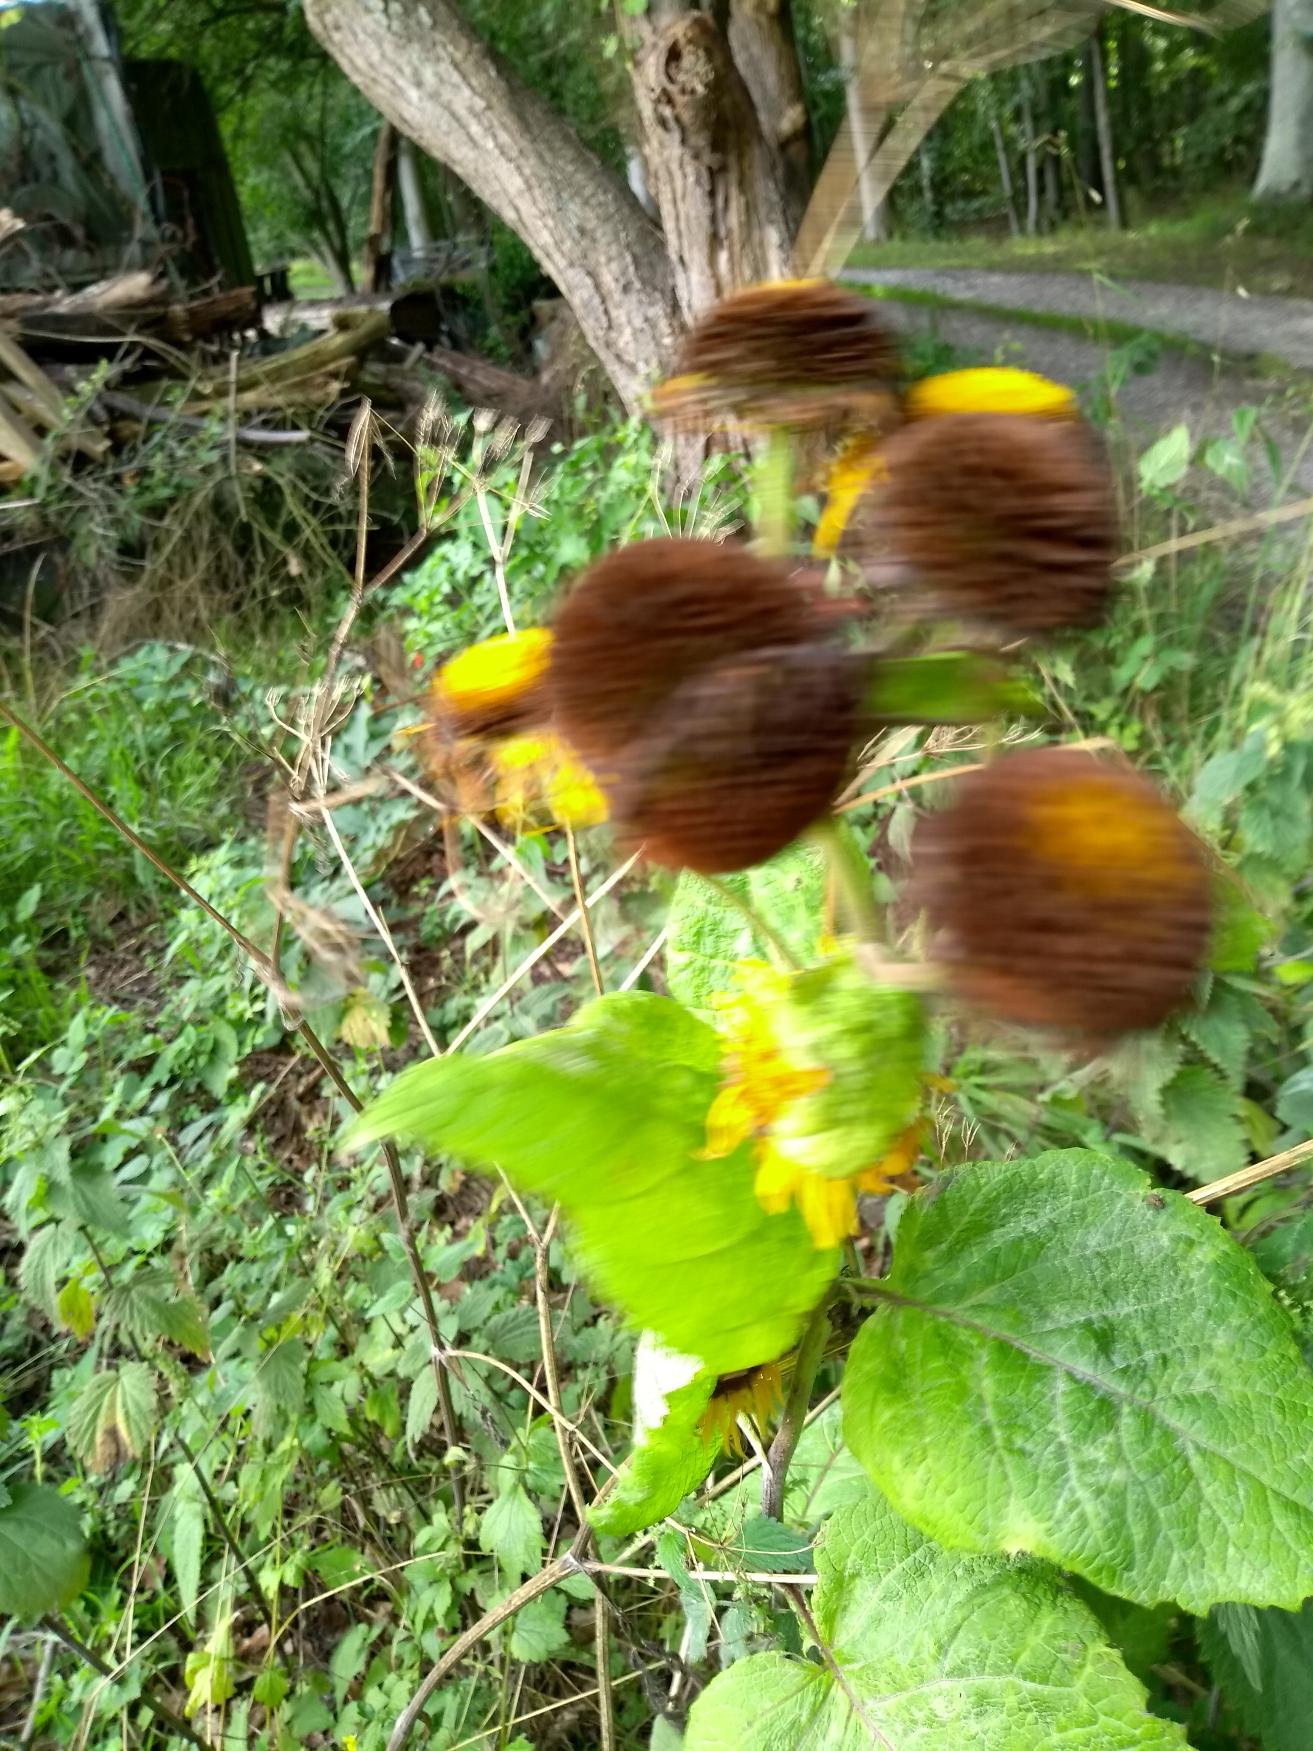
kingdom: Plantae
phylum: Tracheophyta
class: Magnoliopsida
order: Asterales
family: Asteraceae
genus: Telekia
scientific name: Telekia speciosa
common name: Tusindstråle
